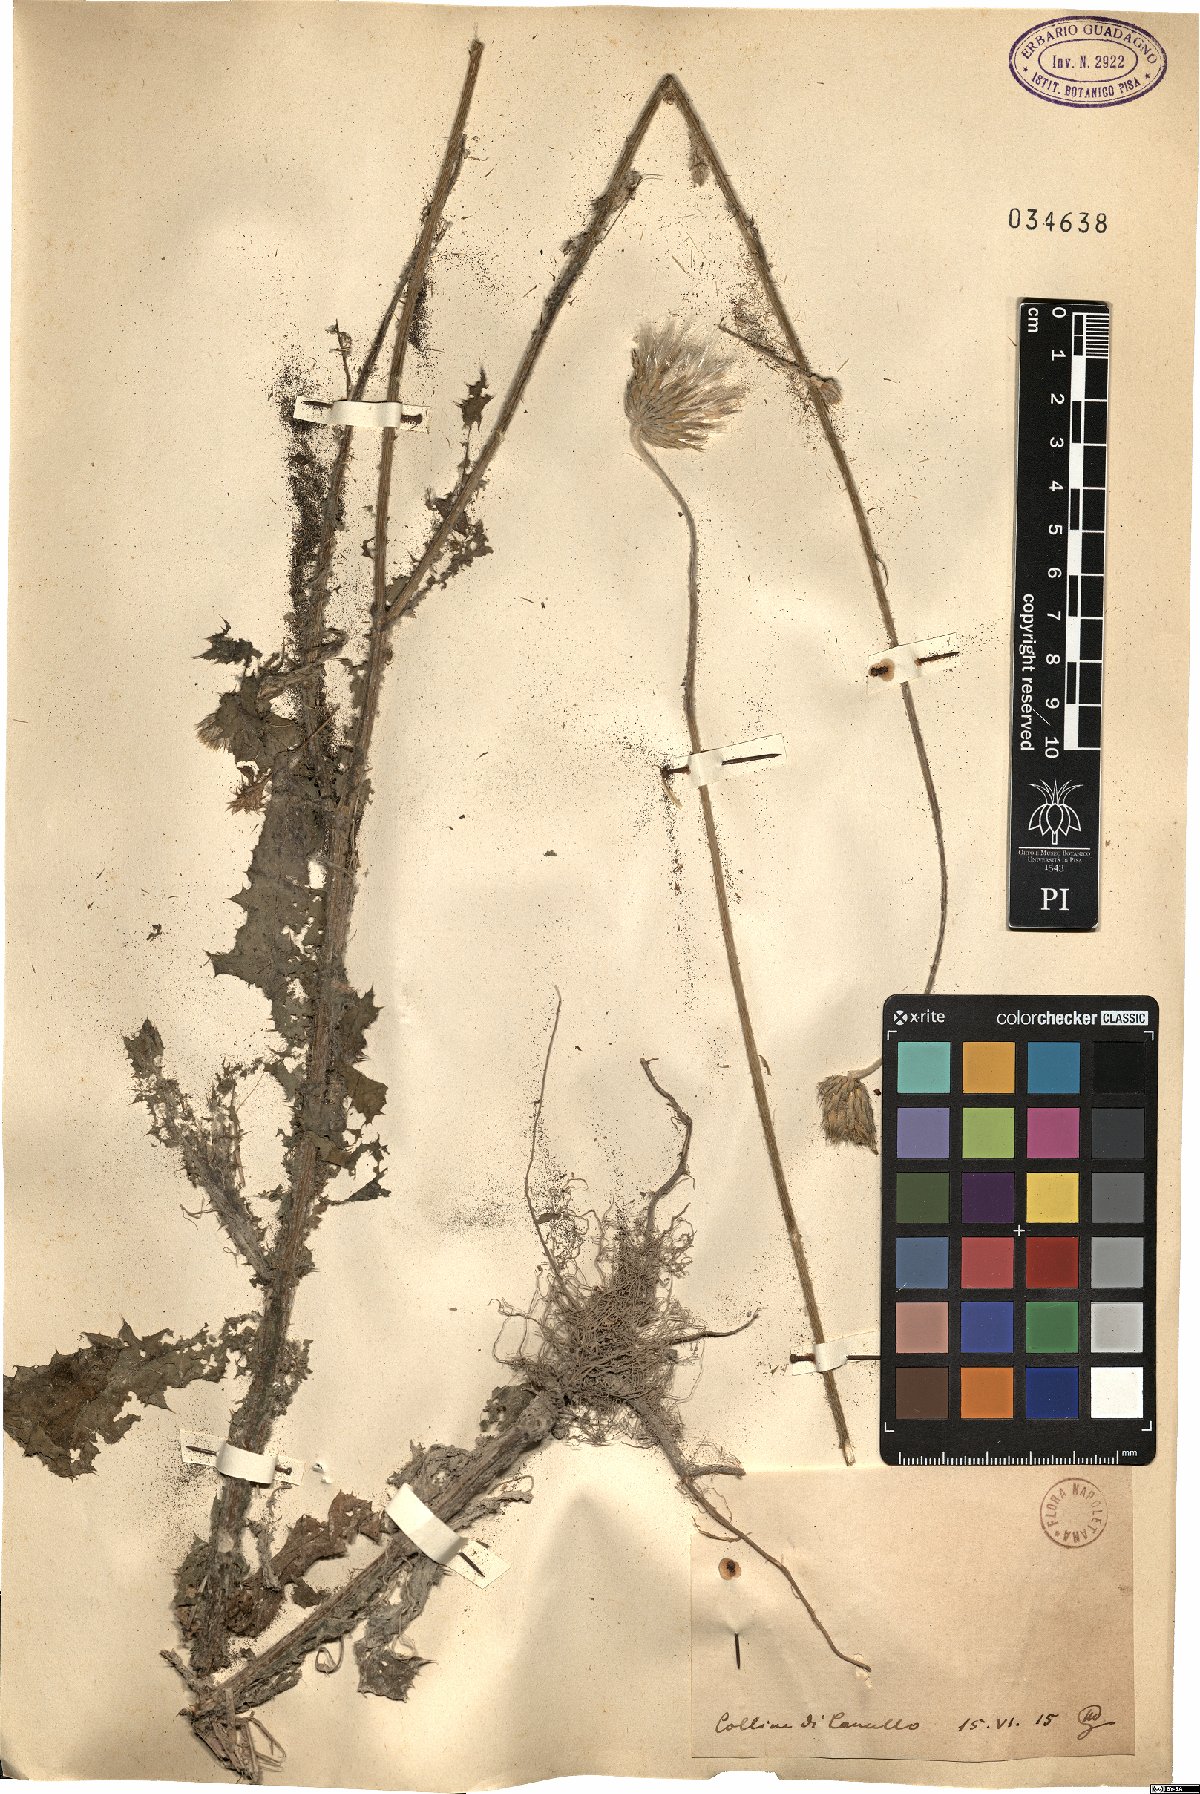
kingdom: Plantae
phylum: Tracheophyta
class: Magnoliopsida
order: Asterales
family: Asteraceae
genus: Galactites
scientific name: Galactites
